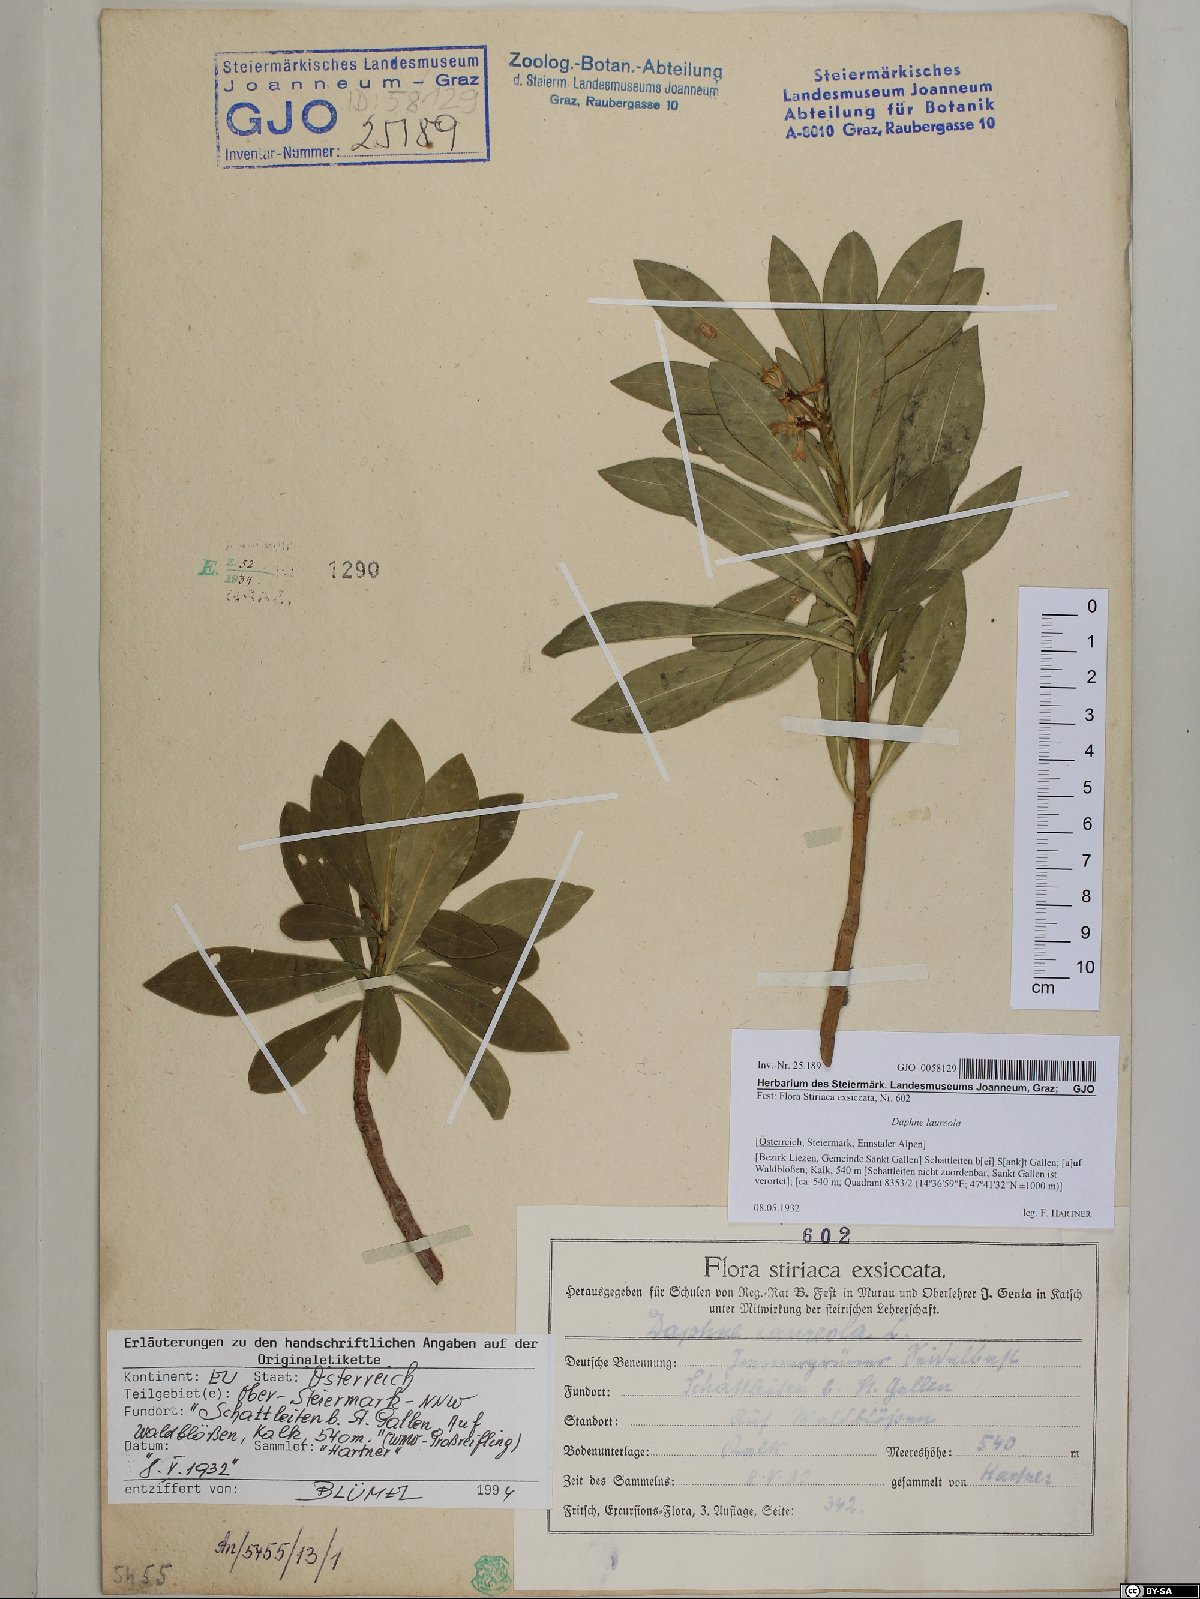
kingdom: Plantae
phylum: Tracheophyta
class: Magnoliopsida
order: Malvales
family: Thymelaeaceae
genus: Daphne
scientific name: Daphne laureola
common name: Spurge-laurel
